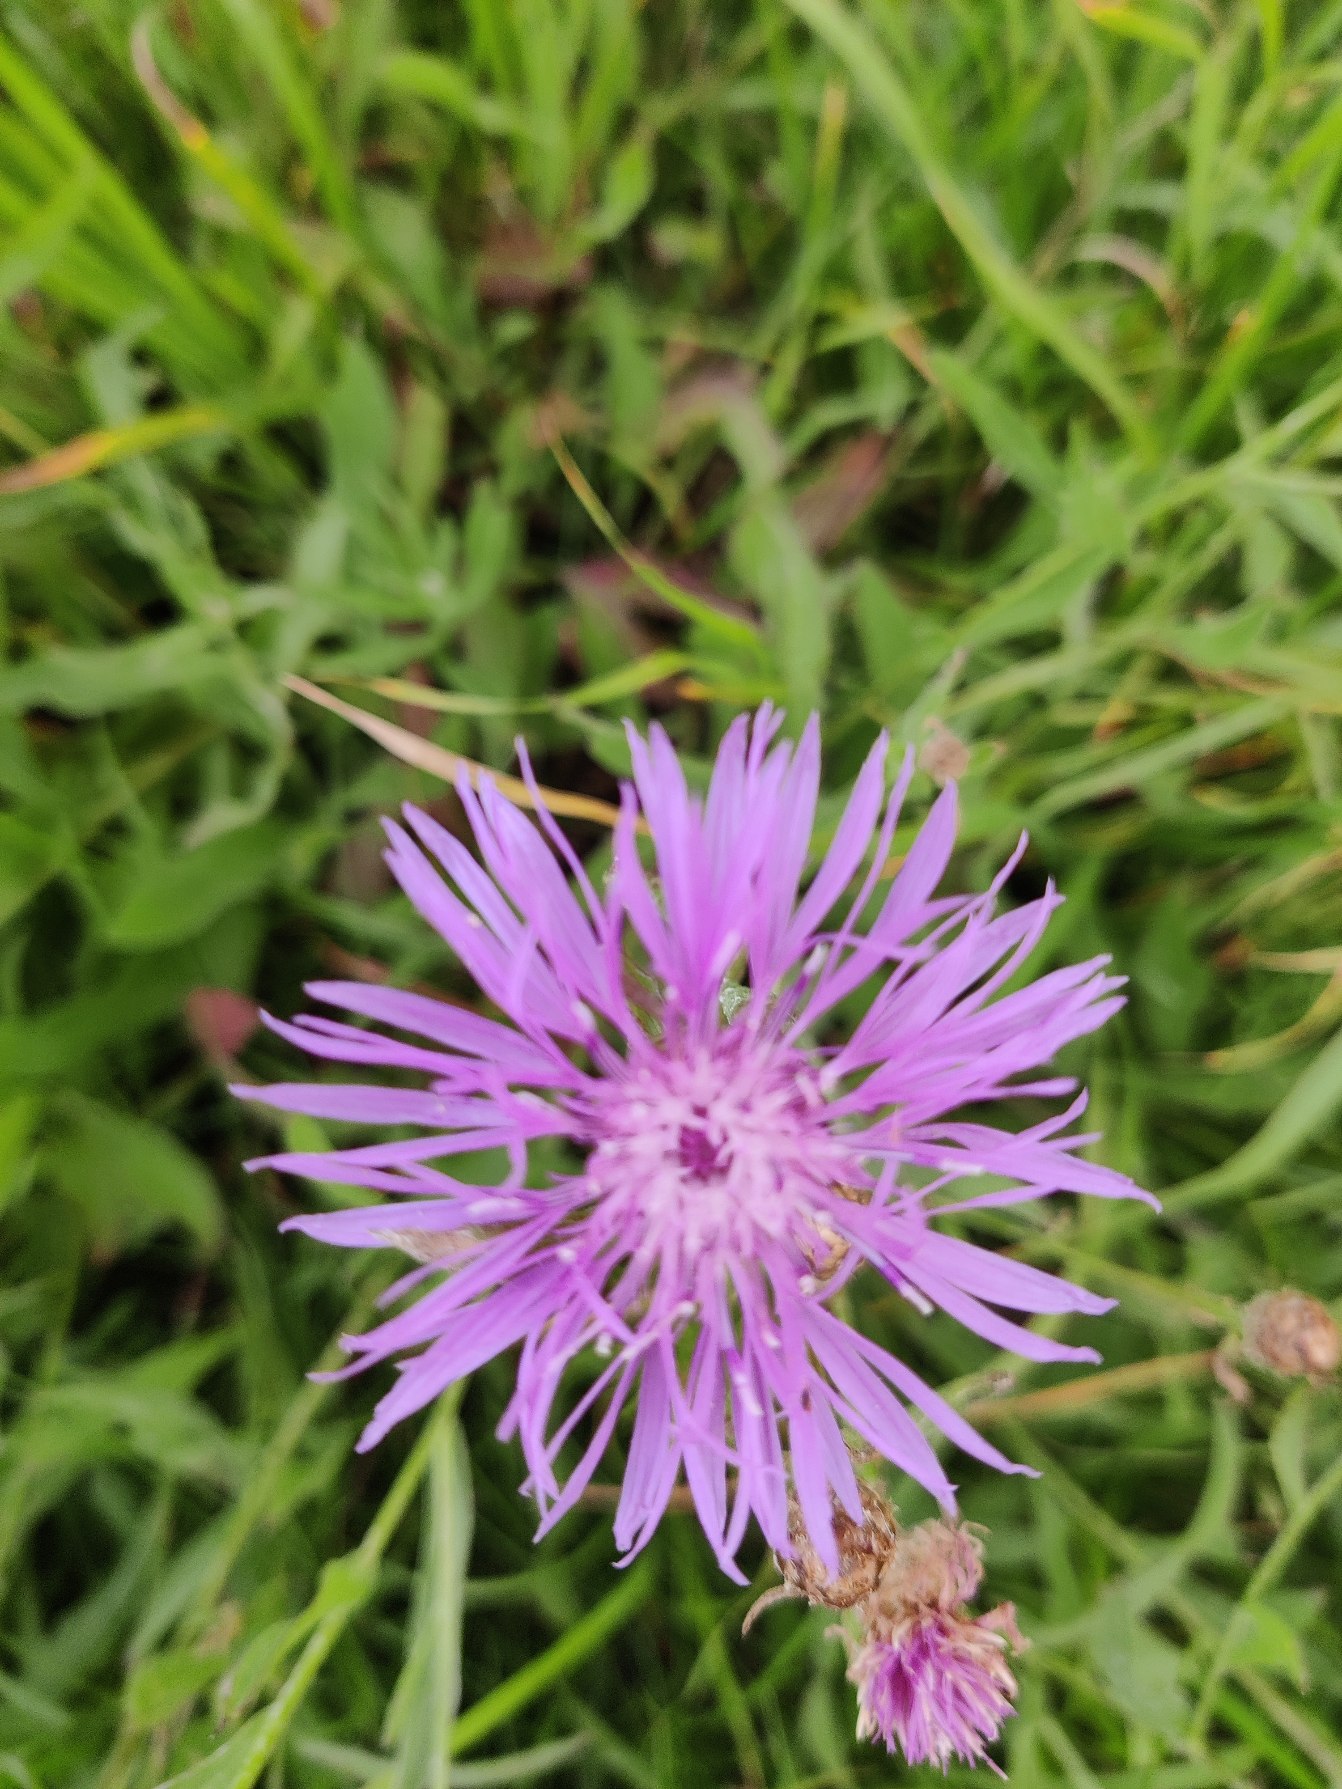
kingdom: Plantae
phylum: Tracheophyta
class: Magnoliopsida
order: Asterales
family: Asteraceae
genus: Centaurea
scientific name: Centaurea jacea
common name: Almindelig knopurt
